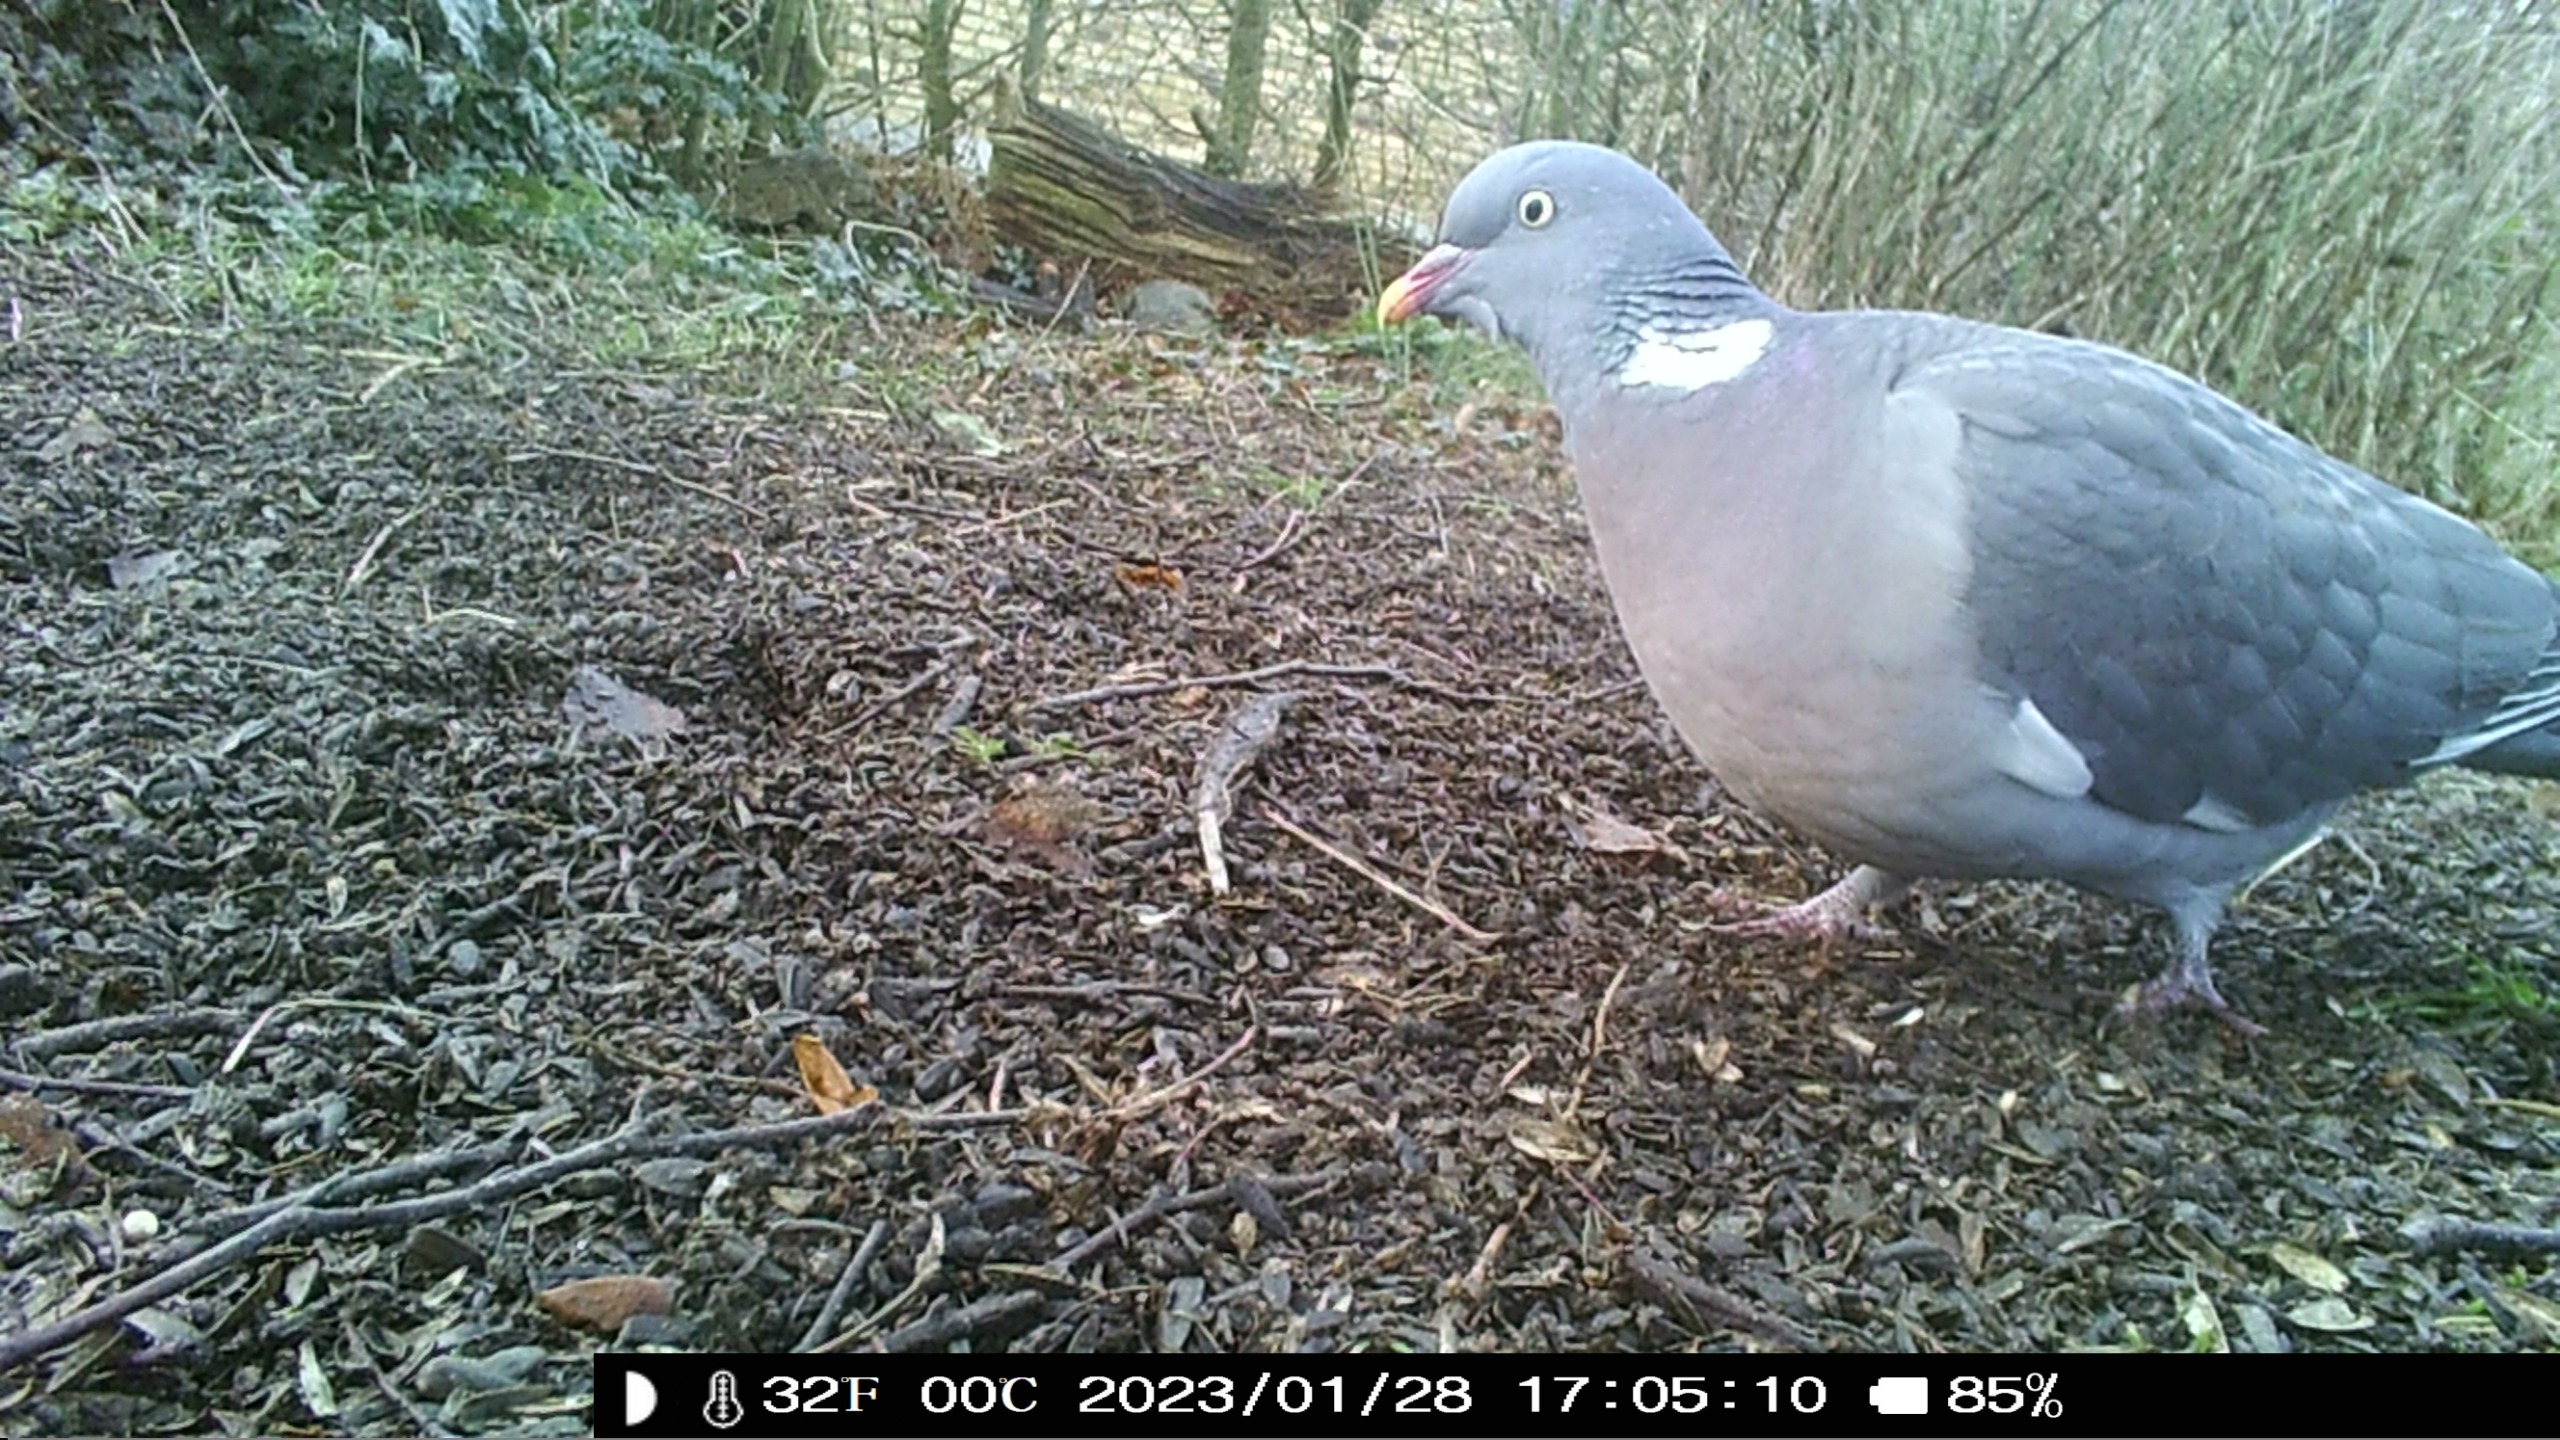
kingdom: Animalia
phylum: Chordata
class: Aves
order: Columbiformes
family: Columbidae
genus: Columba
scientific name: Columba palumbus
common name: Ringdue
